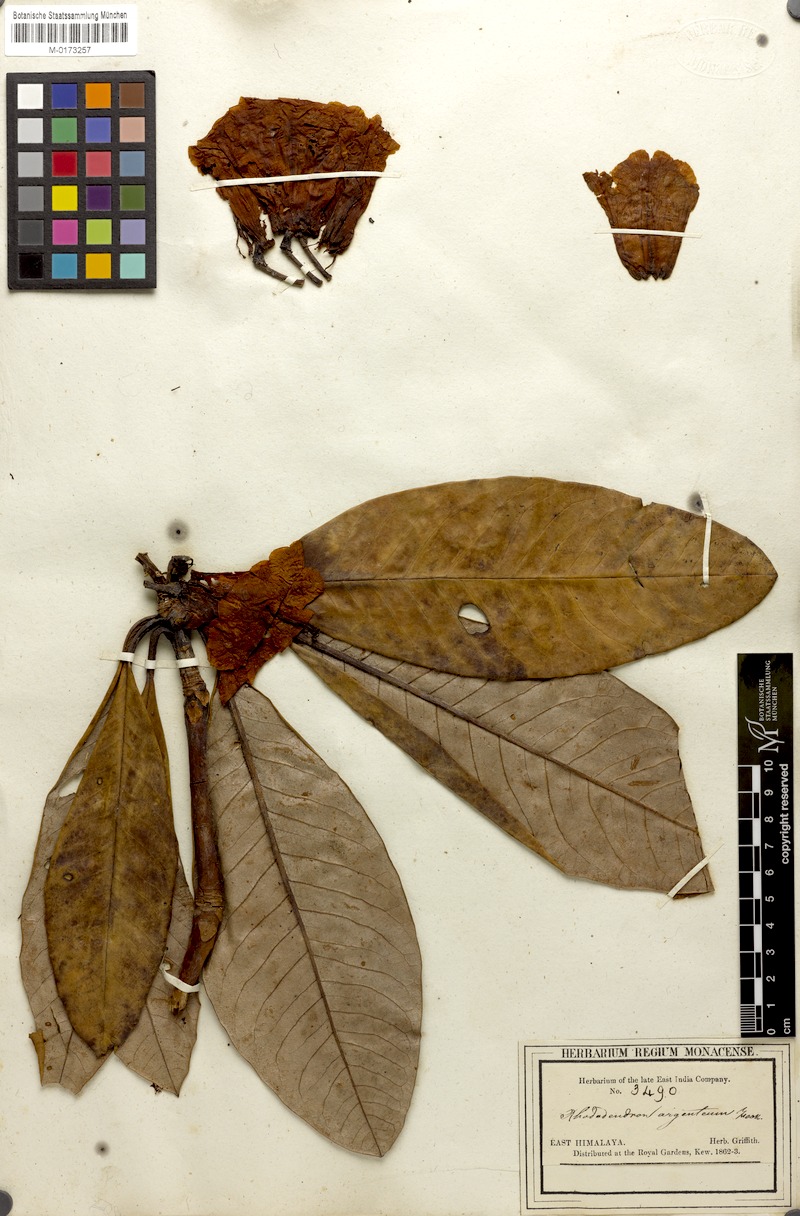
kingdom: Plantae
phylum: Tracheophyta
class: Magnoliopsida
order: Ericales
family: Ericaceae
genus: Rhododendron
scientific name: Rhododendron grande
